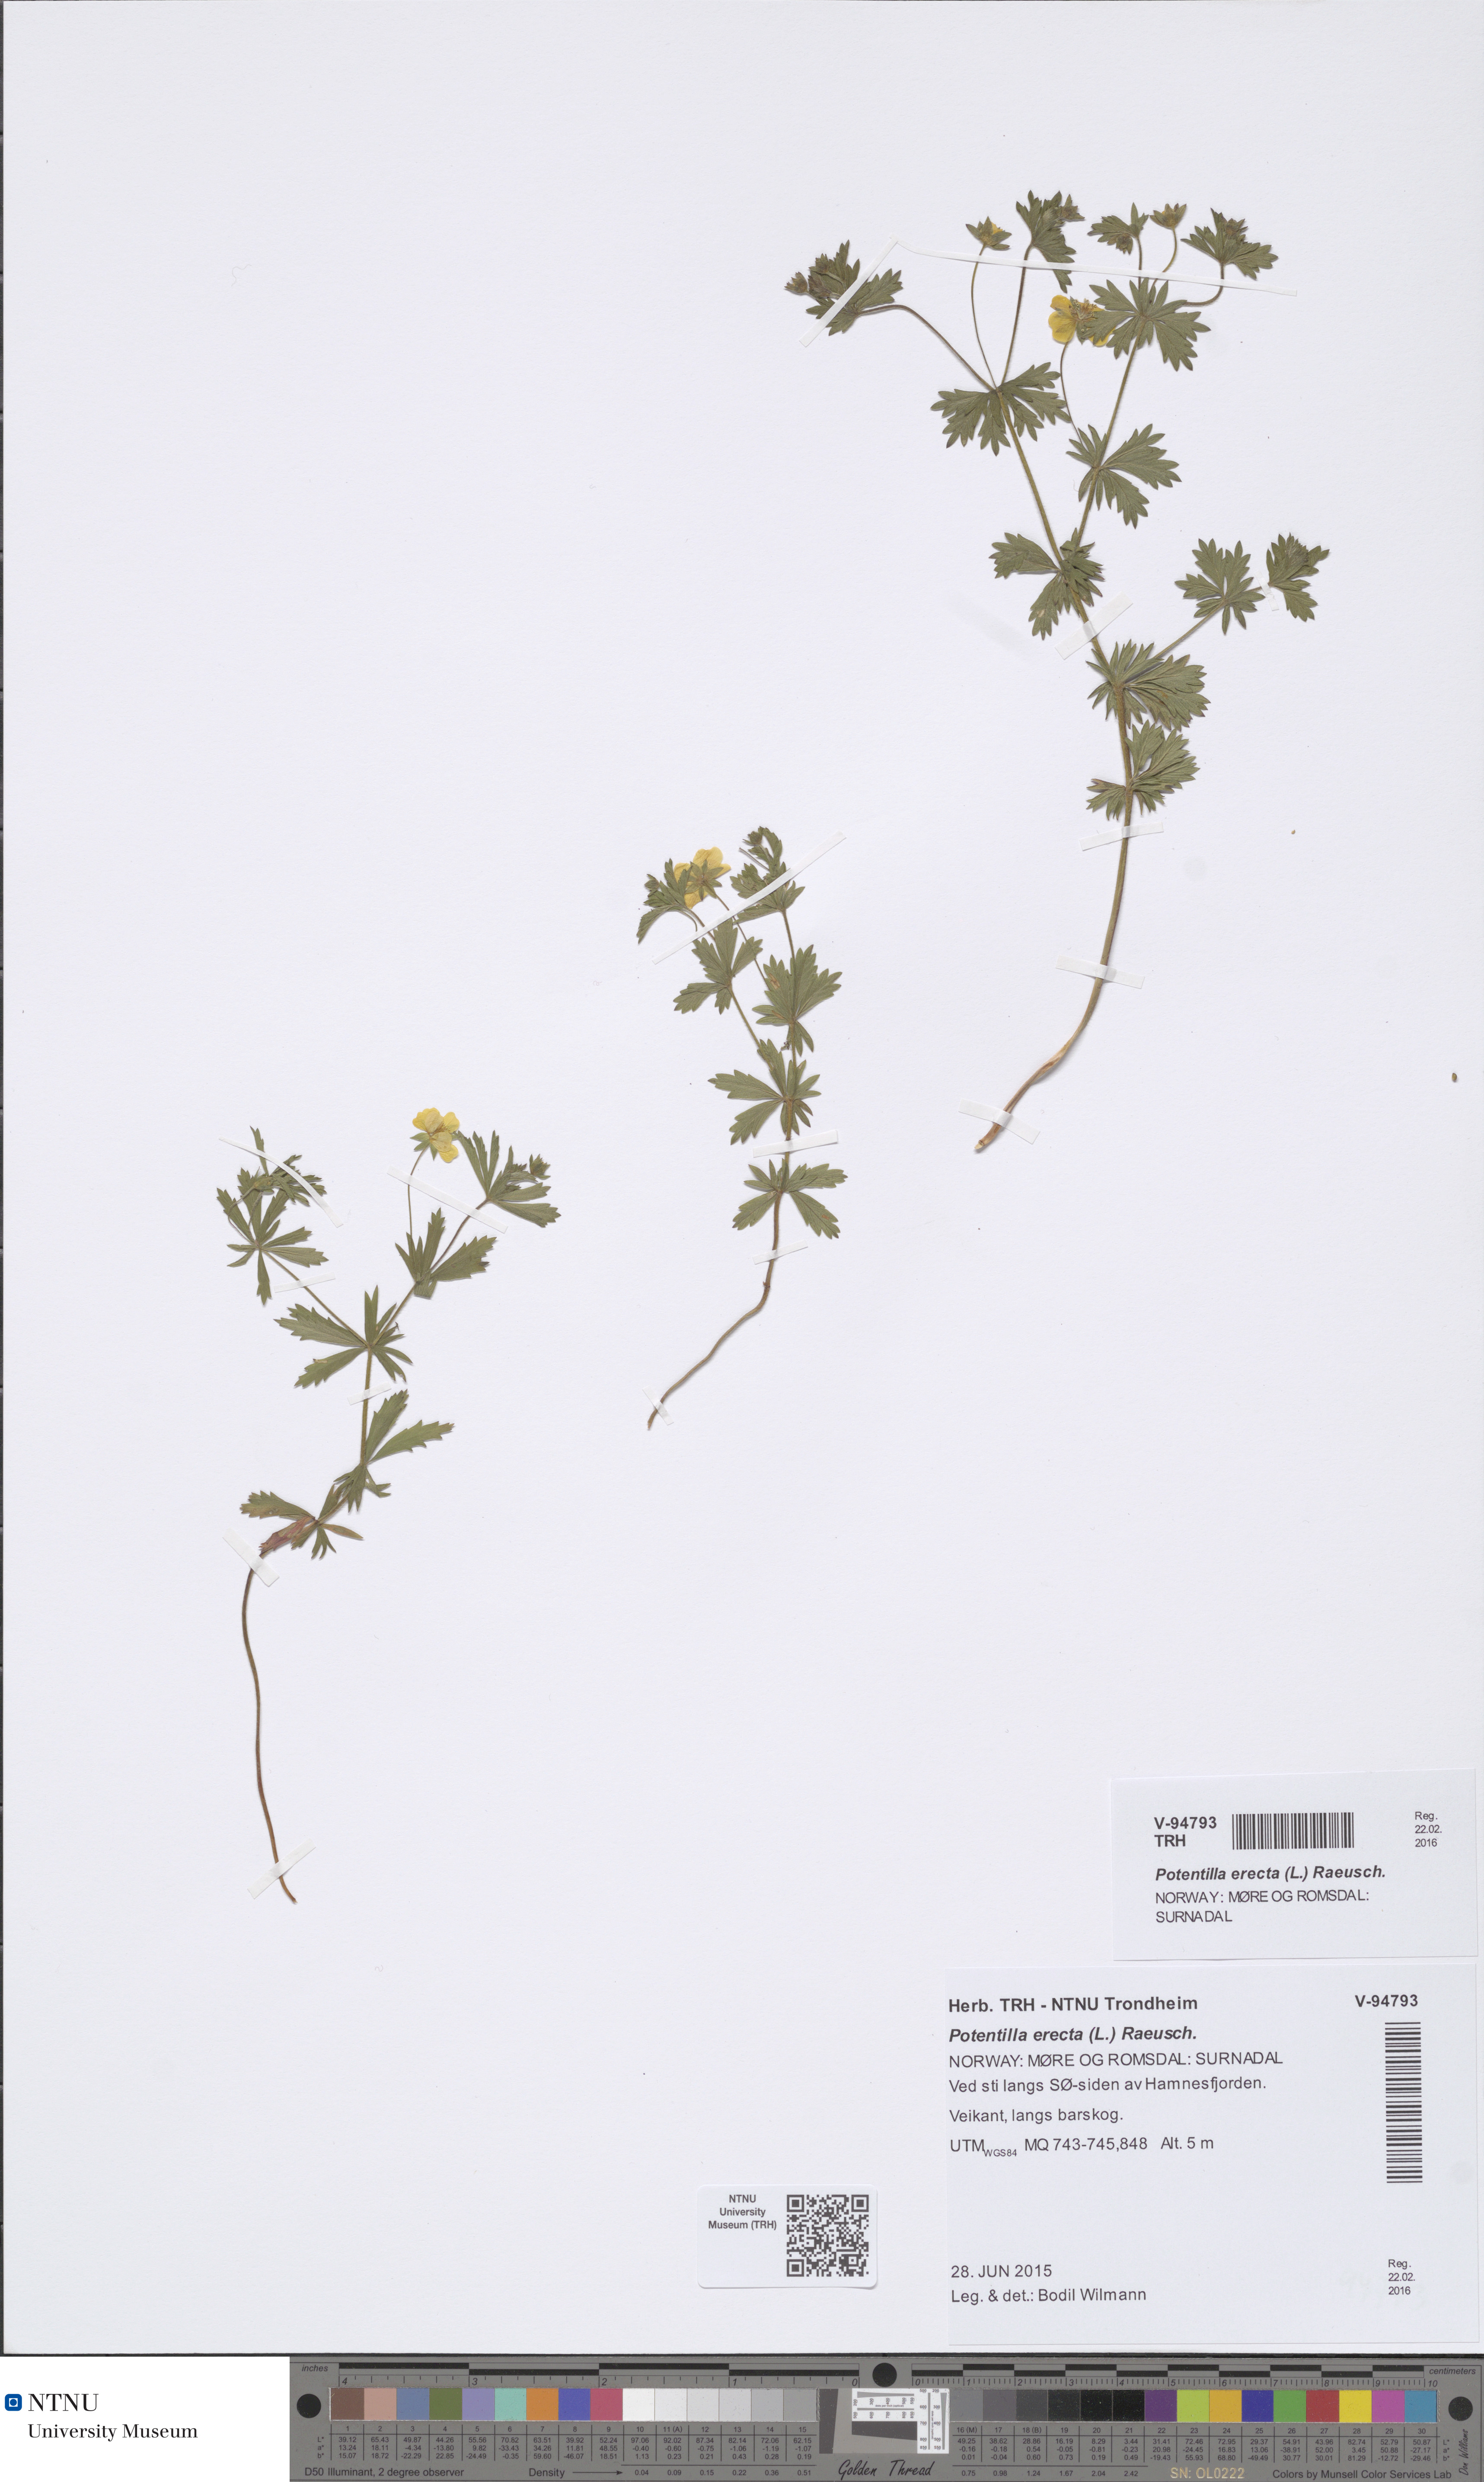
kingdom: Plantae
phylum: Tracheophyta
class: Magnoliopsida
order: Rosales
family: Rosaceae
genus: Potentilla
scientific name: Potentilla erecta
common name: Tormentil
